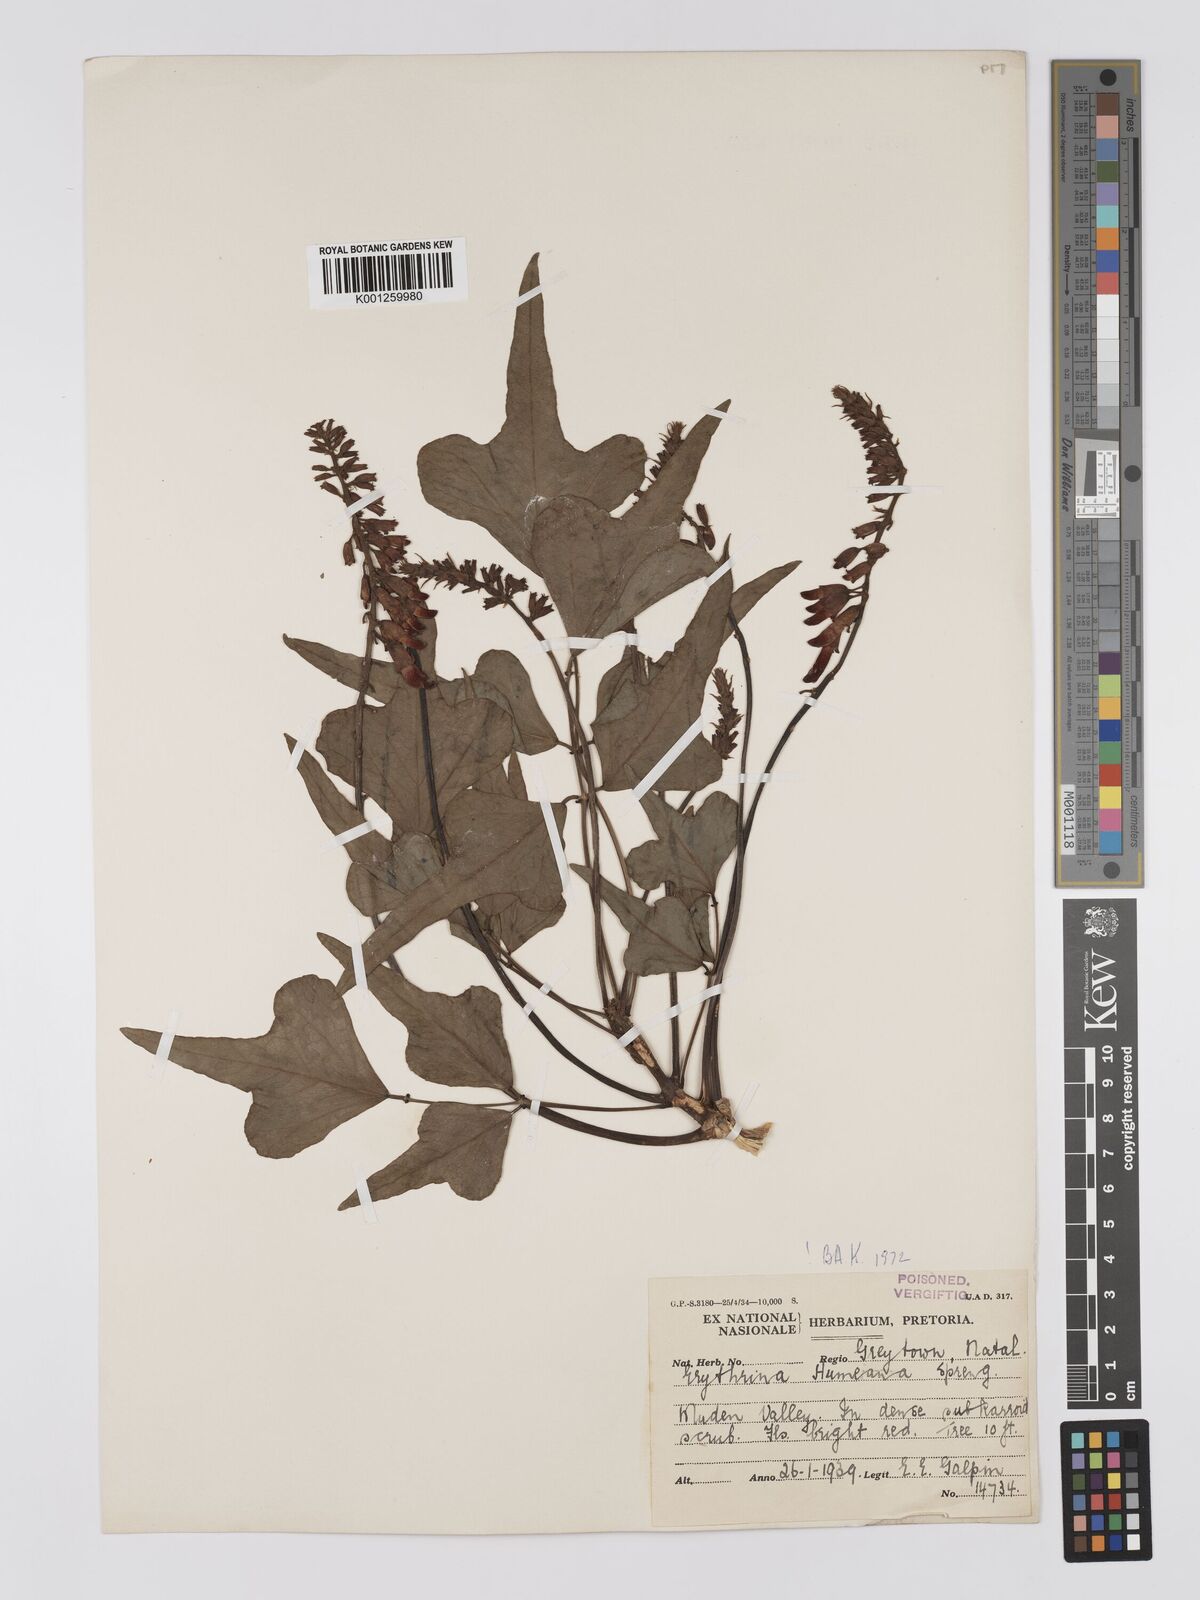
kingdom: Plantae
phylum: Tracheophyta
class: Magnoliopsida
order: Fabales
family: Fabaceae
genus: Erythrina
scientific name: Erythrina humeana
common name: Dwarf coral tree
